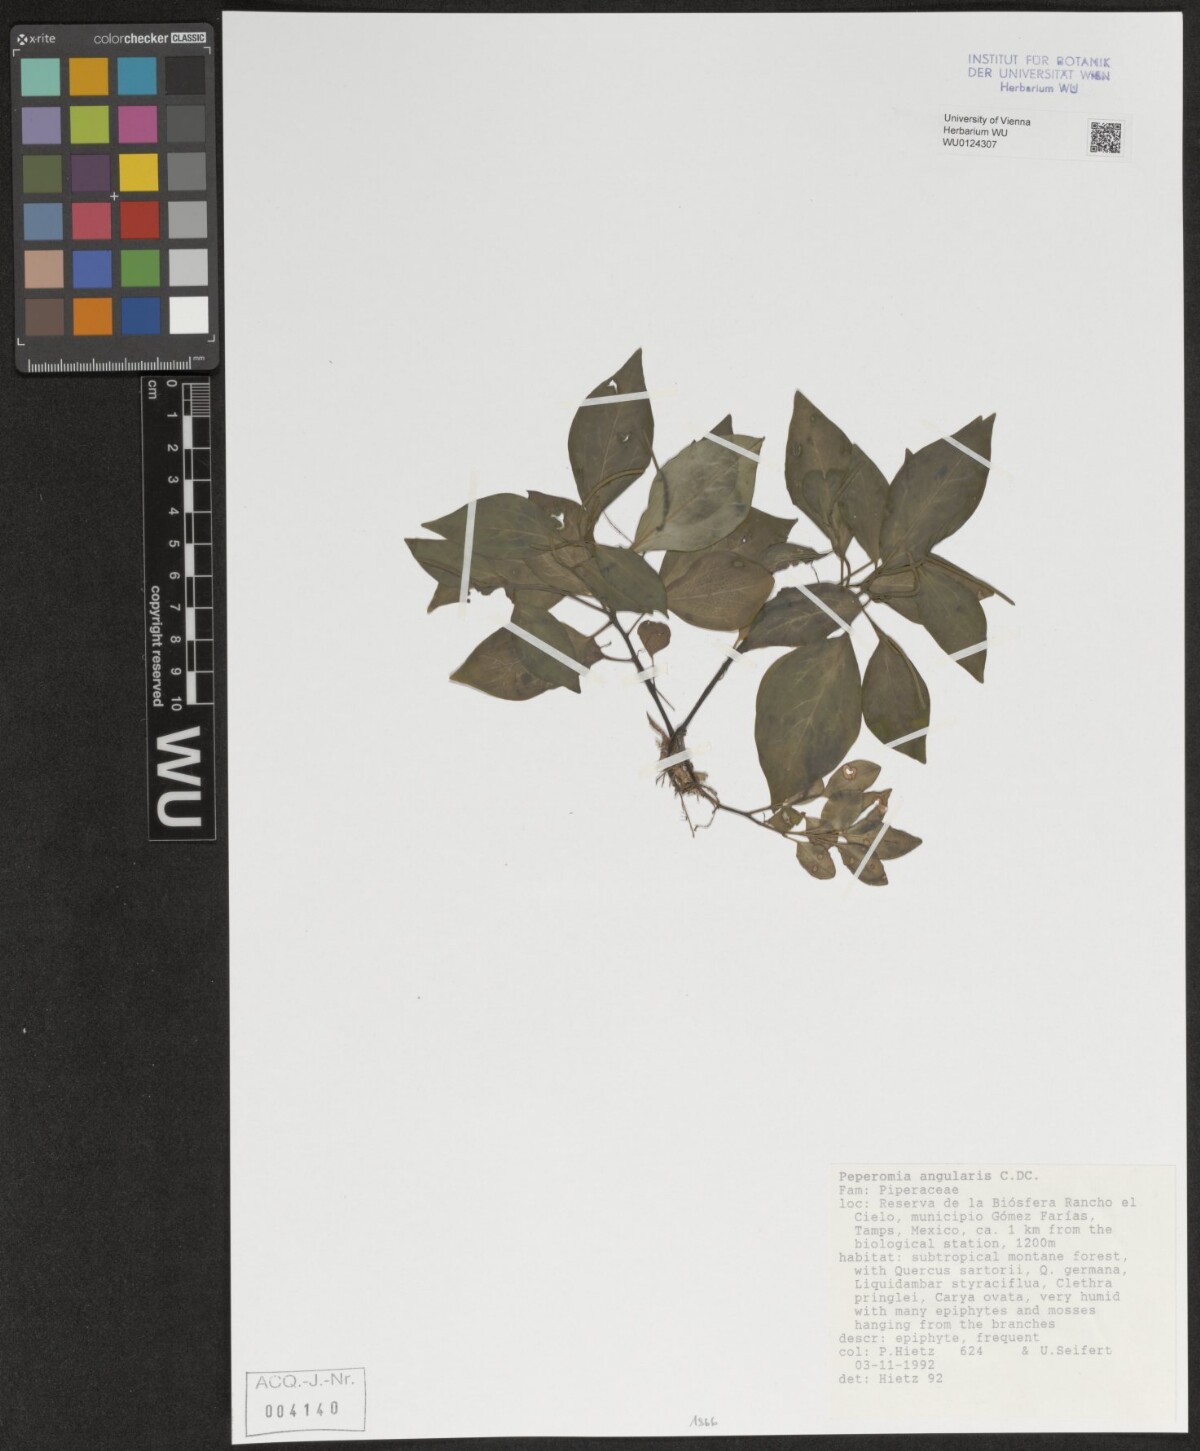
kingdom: Plantae
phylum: Tracheophyta
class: Magnoliopsida
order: Piperales
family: Piperaceae
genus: Peperomia
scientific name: Peperomia angularis
